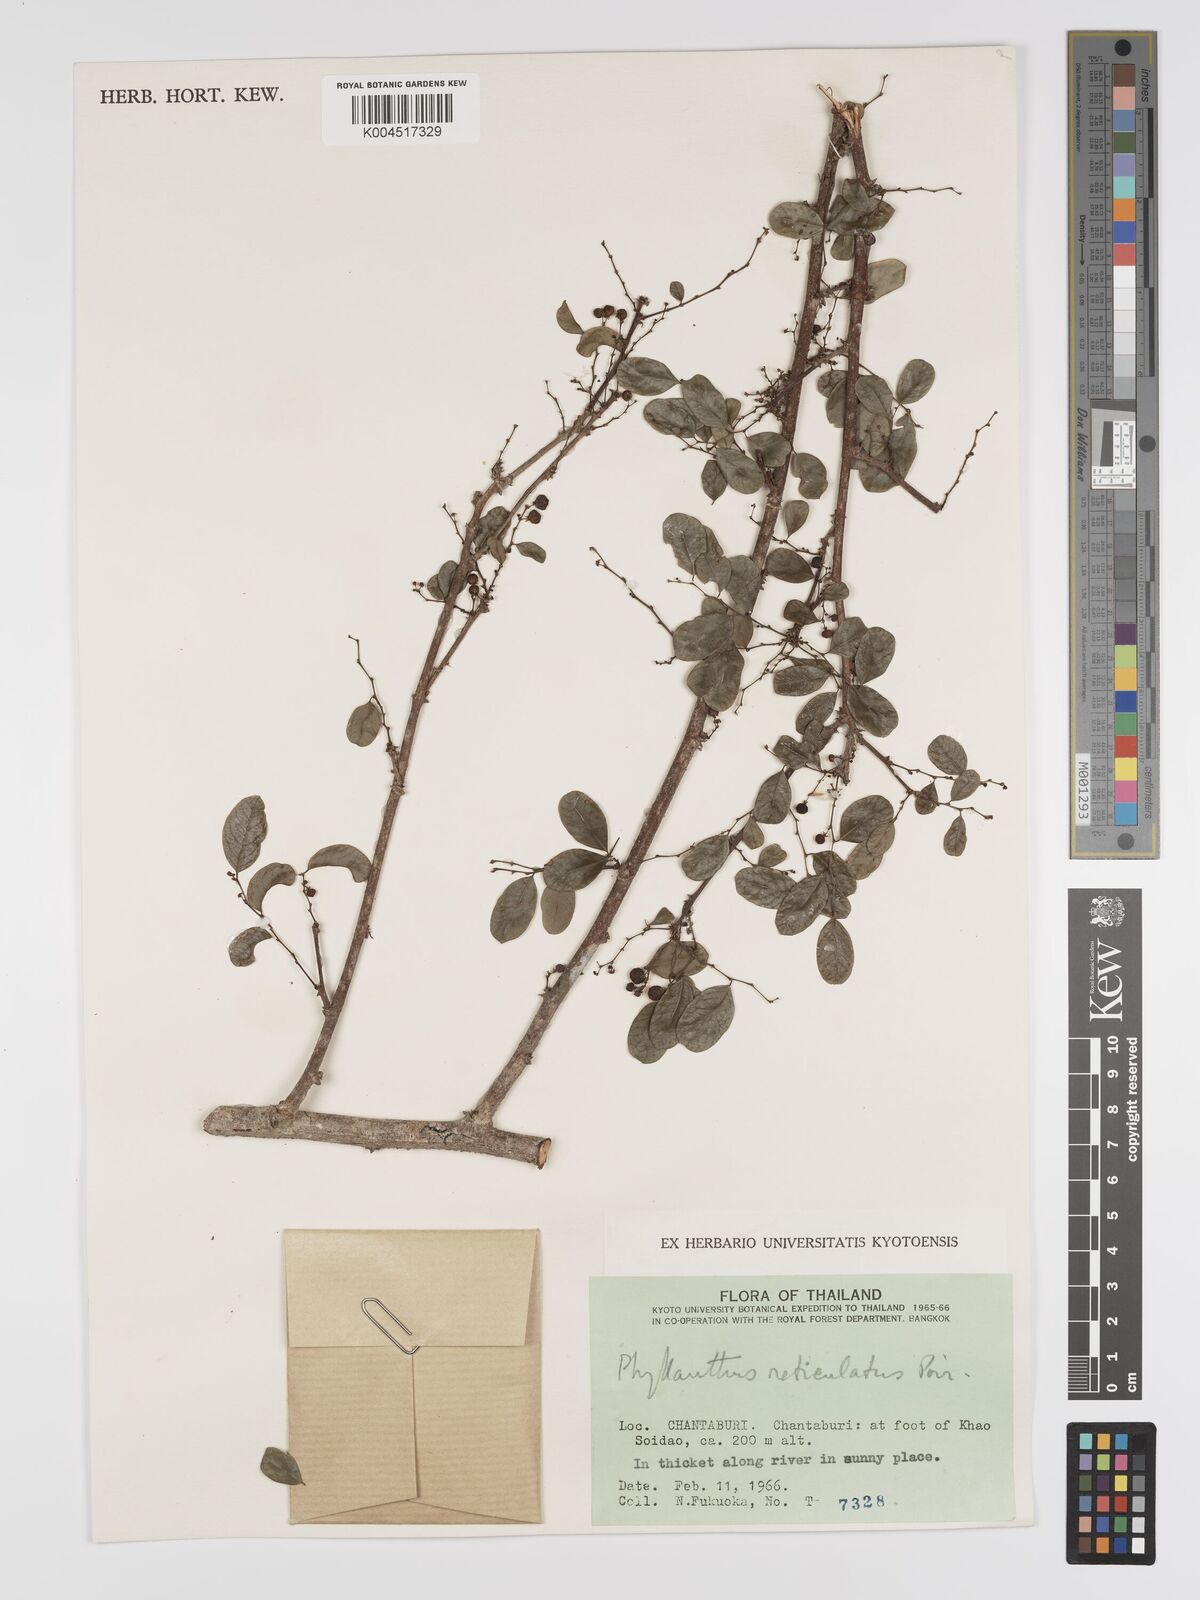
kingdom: Plantae
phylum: Tracheophyta
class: Magnoliopsida
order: Malpighiales
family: Phyllanthaceae
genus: Phyllanthus
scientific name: Phyllanthus reticulatus
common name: Potato bush
